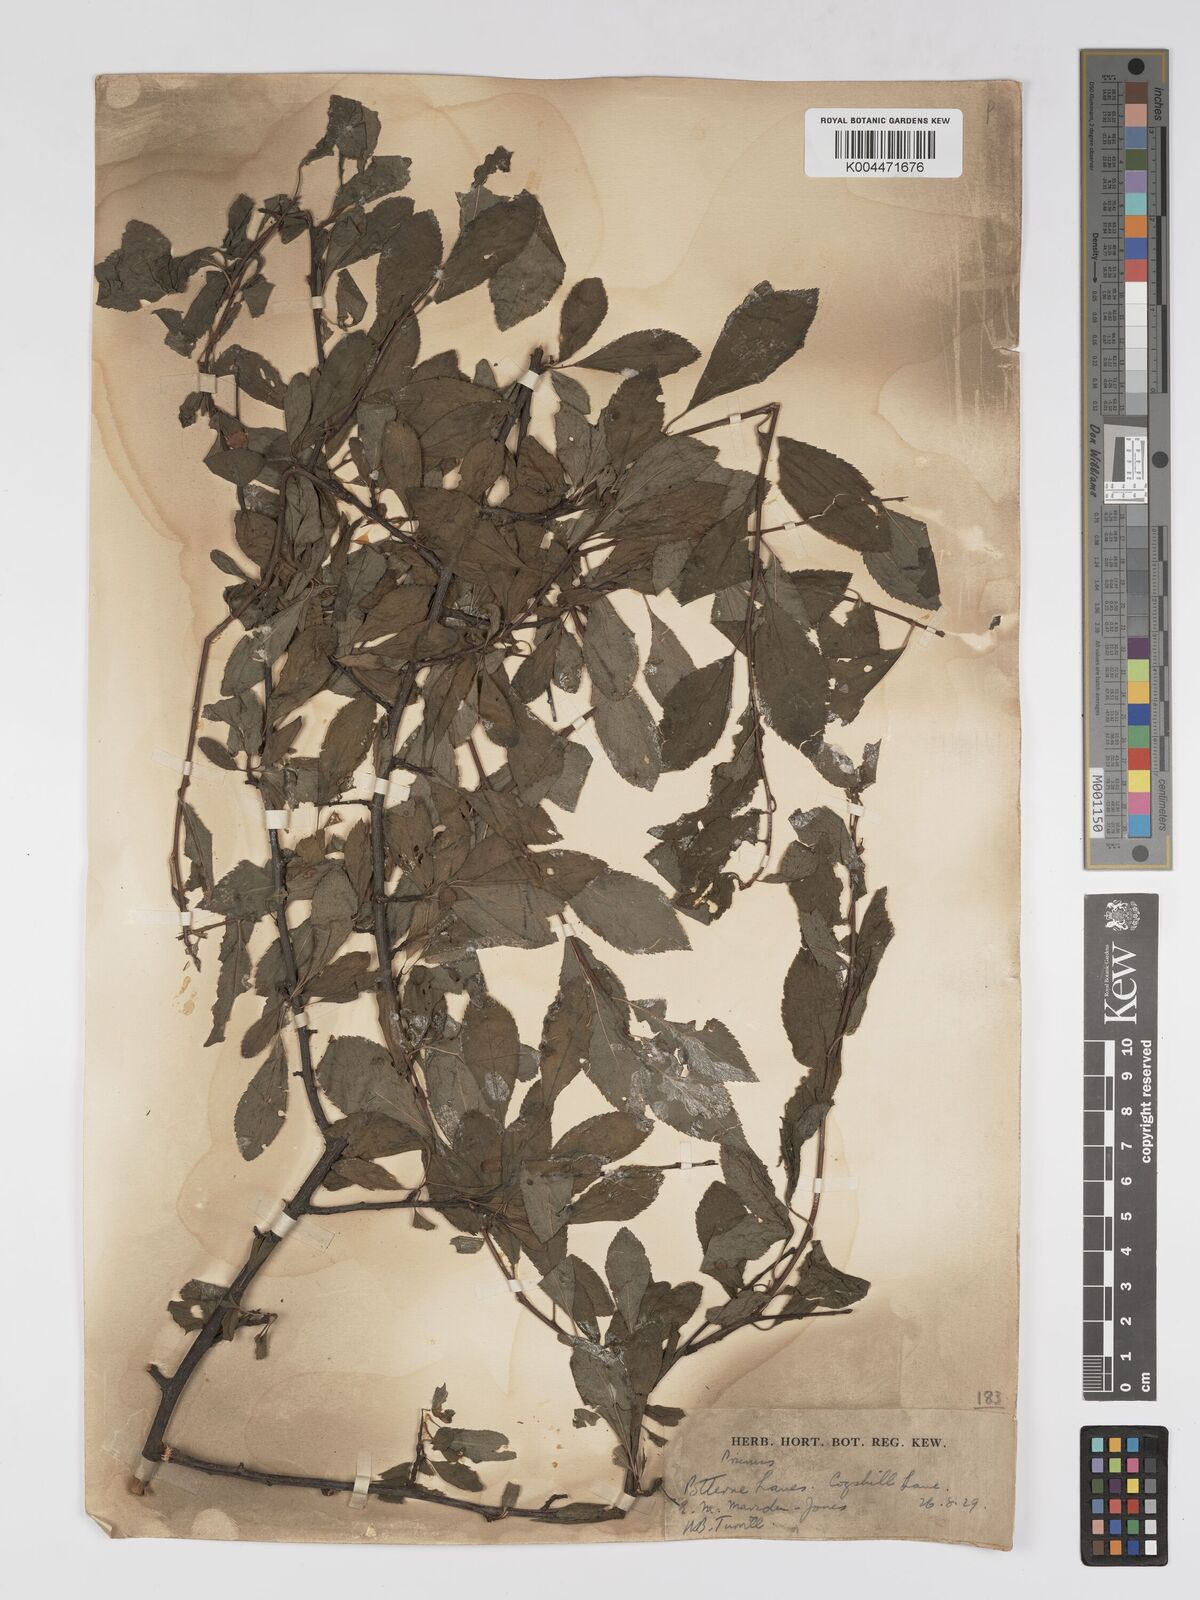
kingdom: Plantae
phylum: Tracheophyta
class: Magnoliopsida
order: Rosales
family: Rosaceae
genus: Prunus
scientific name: Prunus
